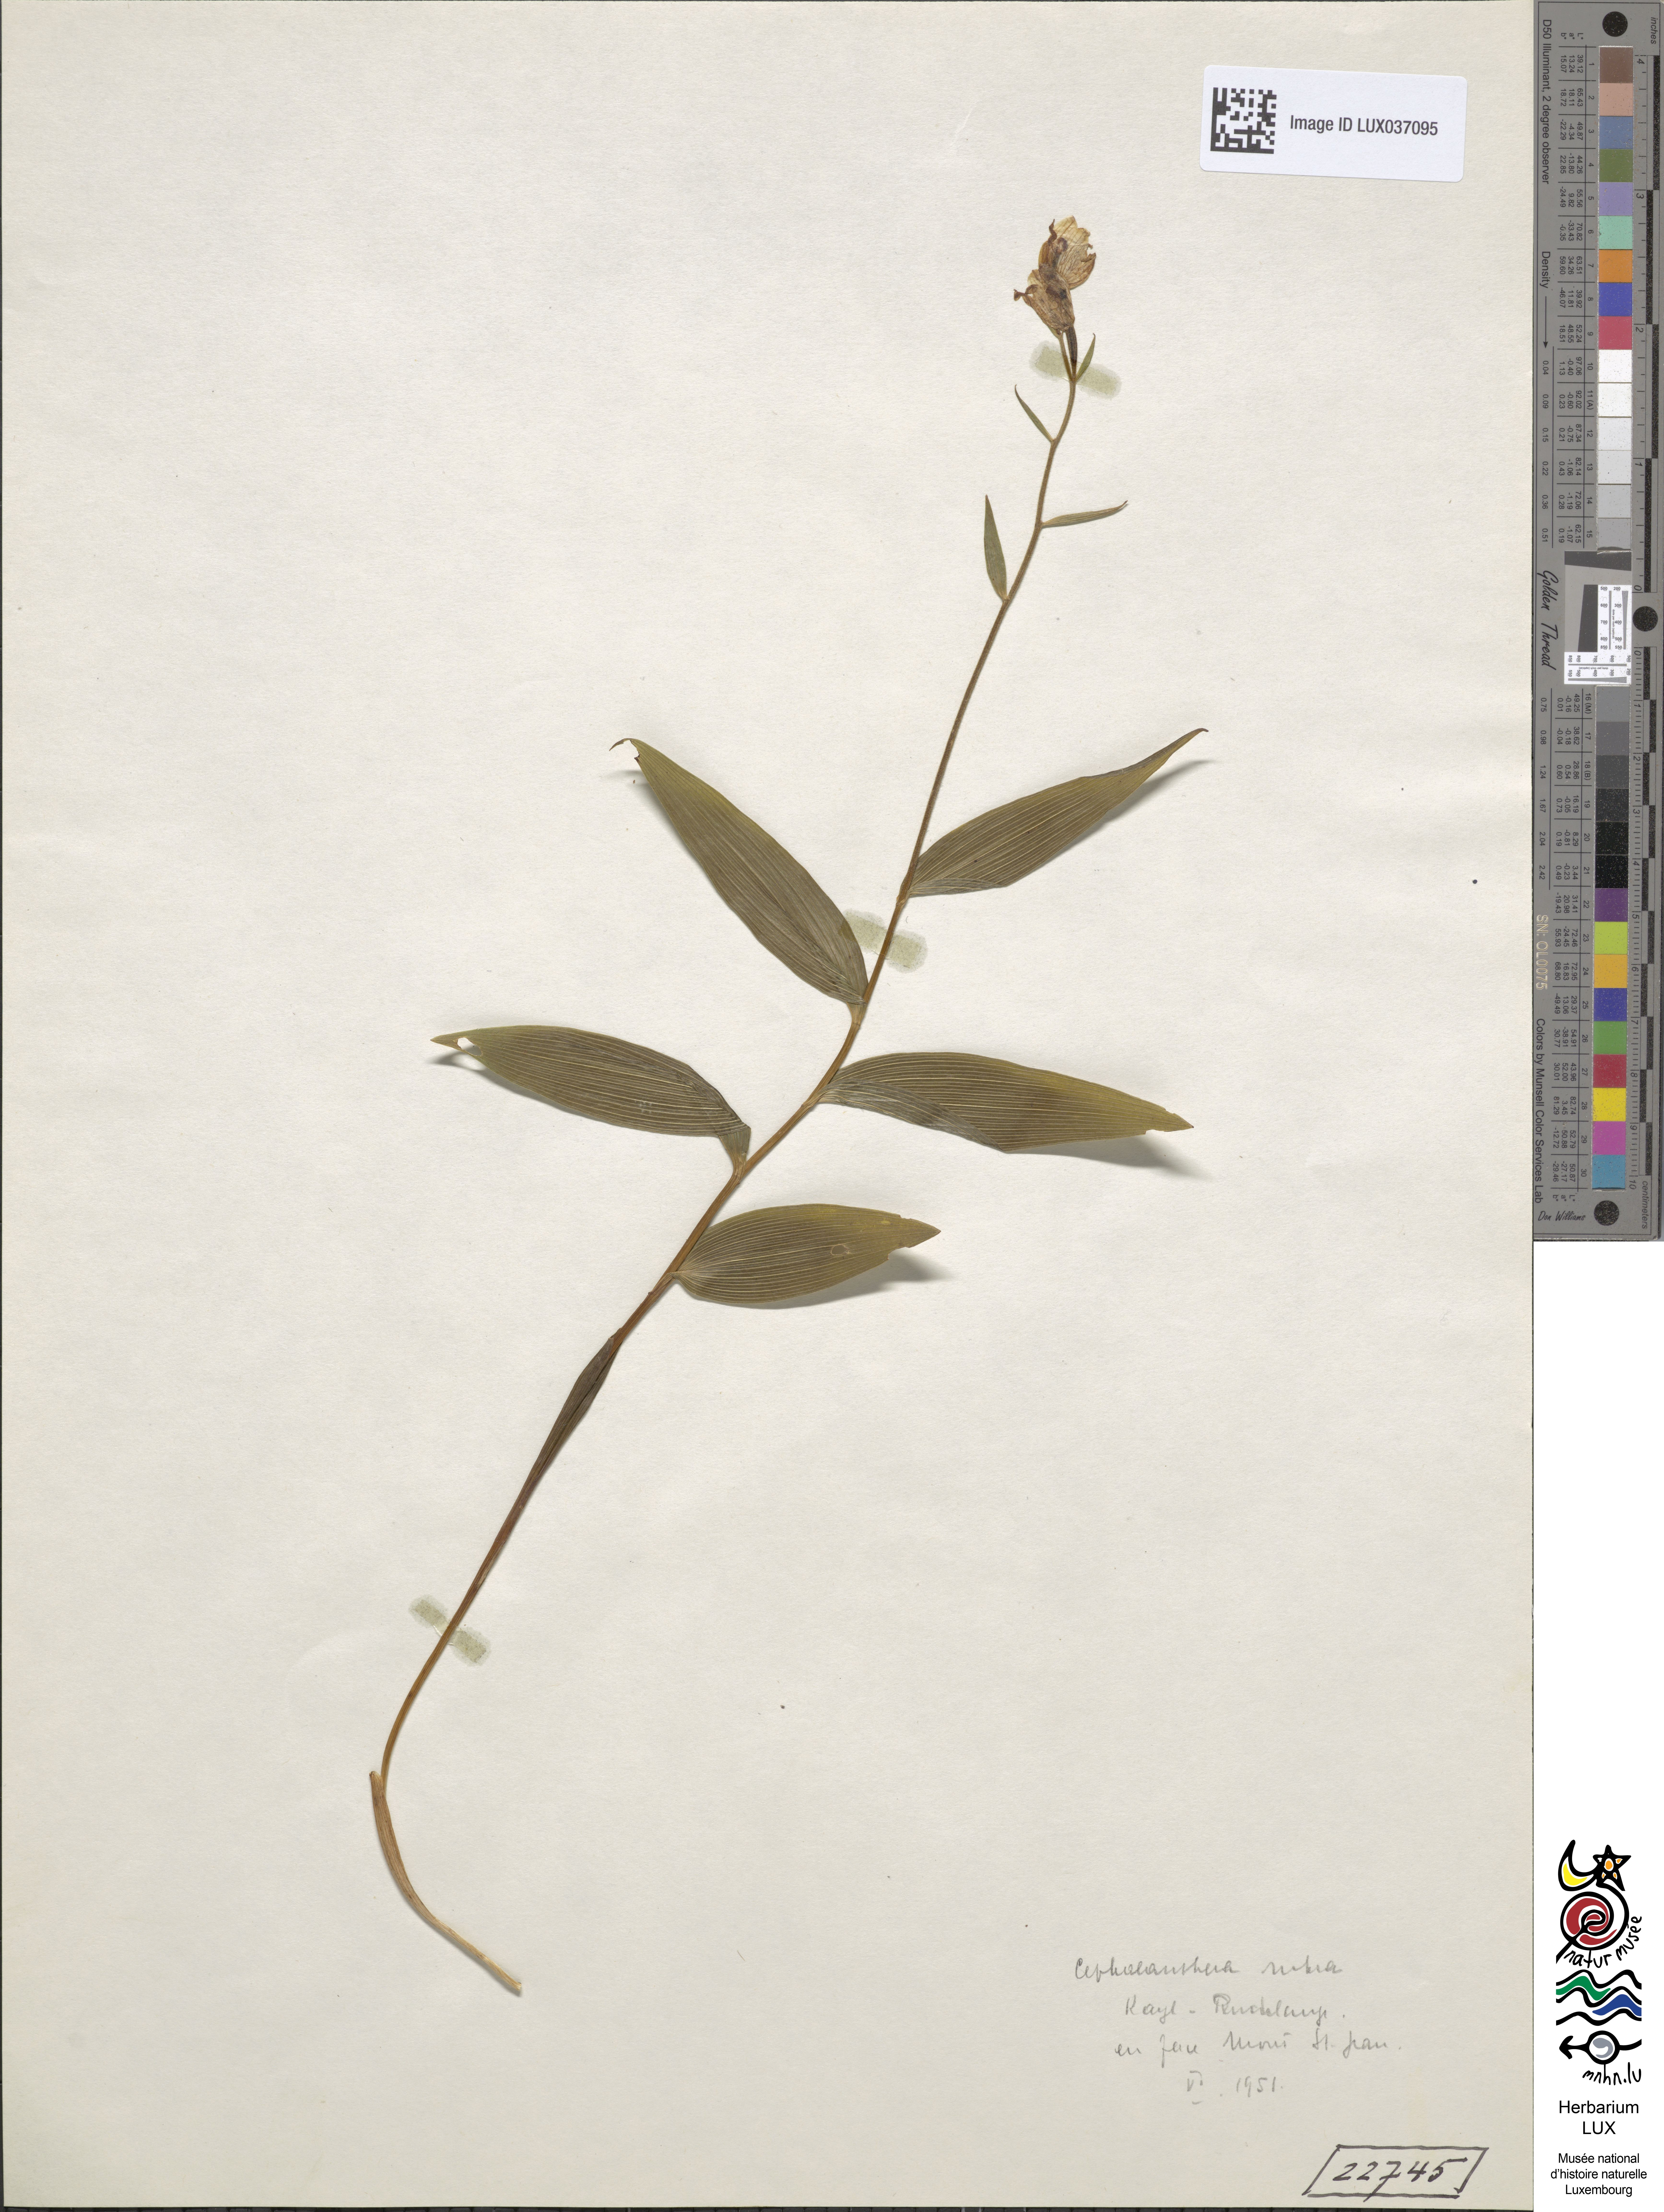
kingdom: Plantae
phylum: Tracheophyta
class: Liliopsida
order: Asparagales
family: Orchidaceae
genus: Cephalanthera
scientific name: Cephalanthera rubra
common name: Red helleborine
